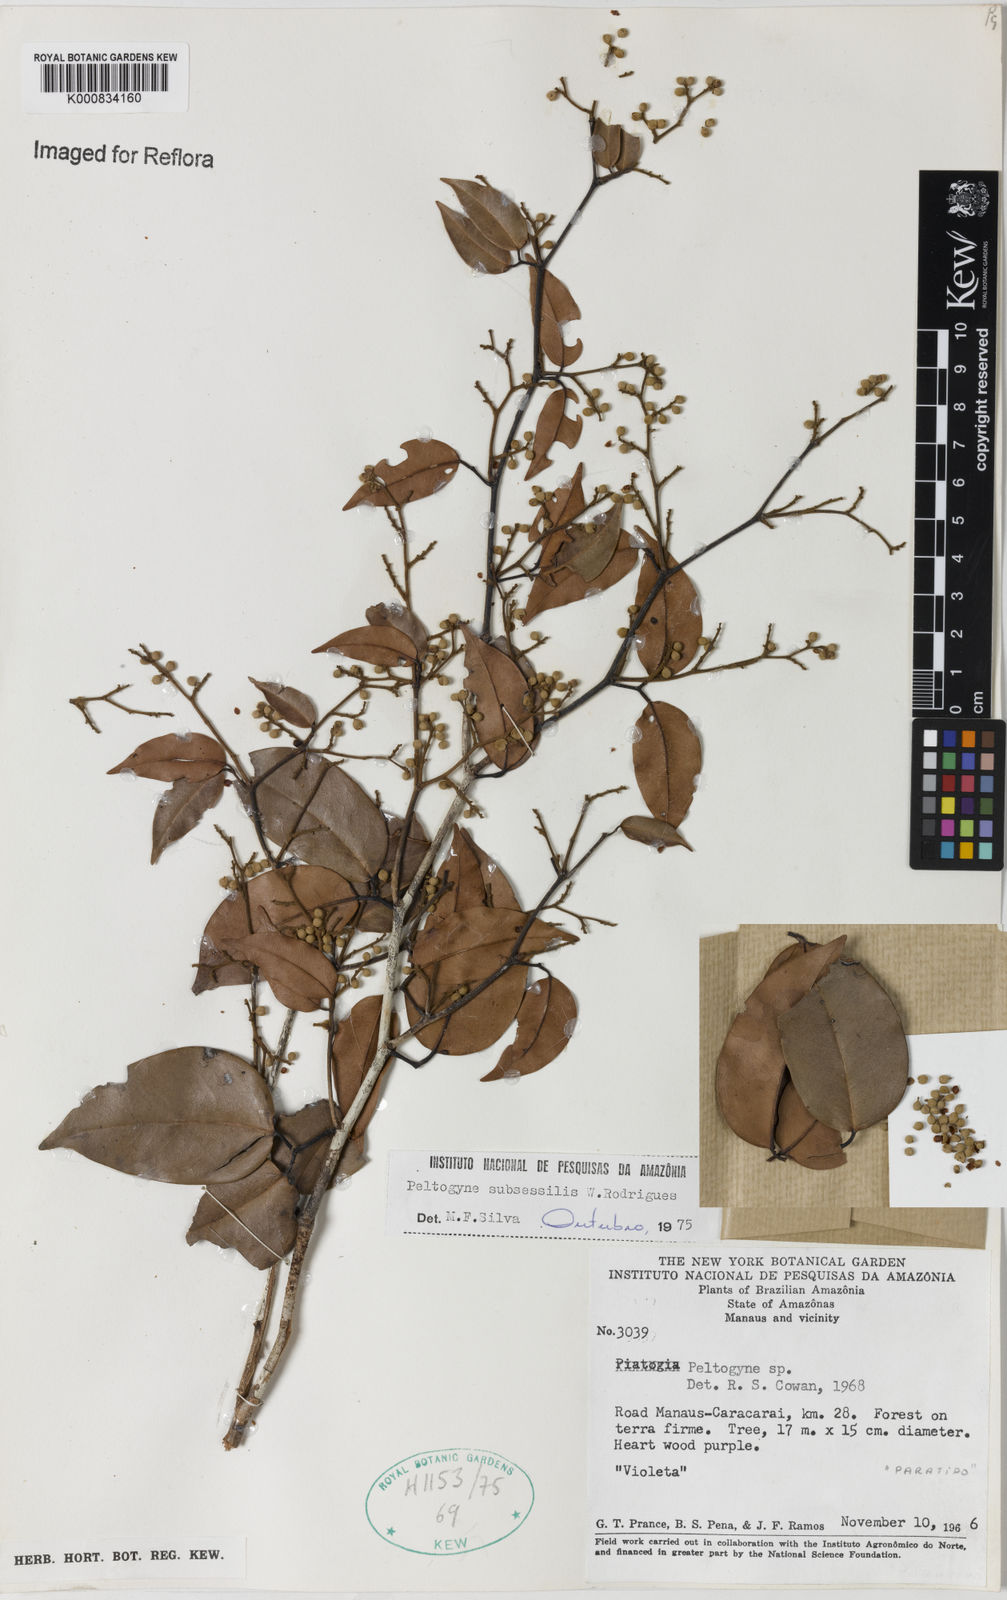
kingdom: Plantae
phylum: Tracheophyta
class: Magnoliopsida
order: Fabales
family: Fabaceae
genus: Peltogyne
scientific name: Peltogyne subsessilis
